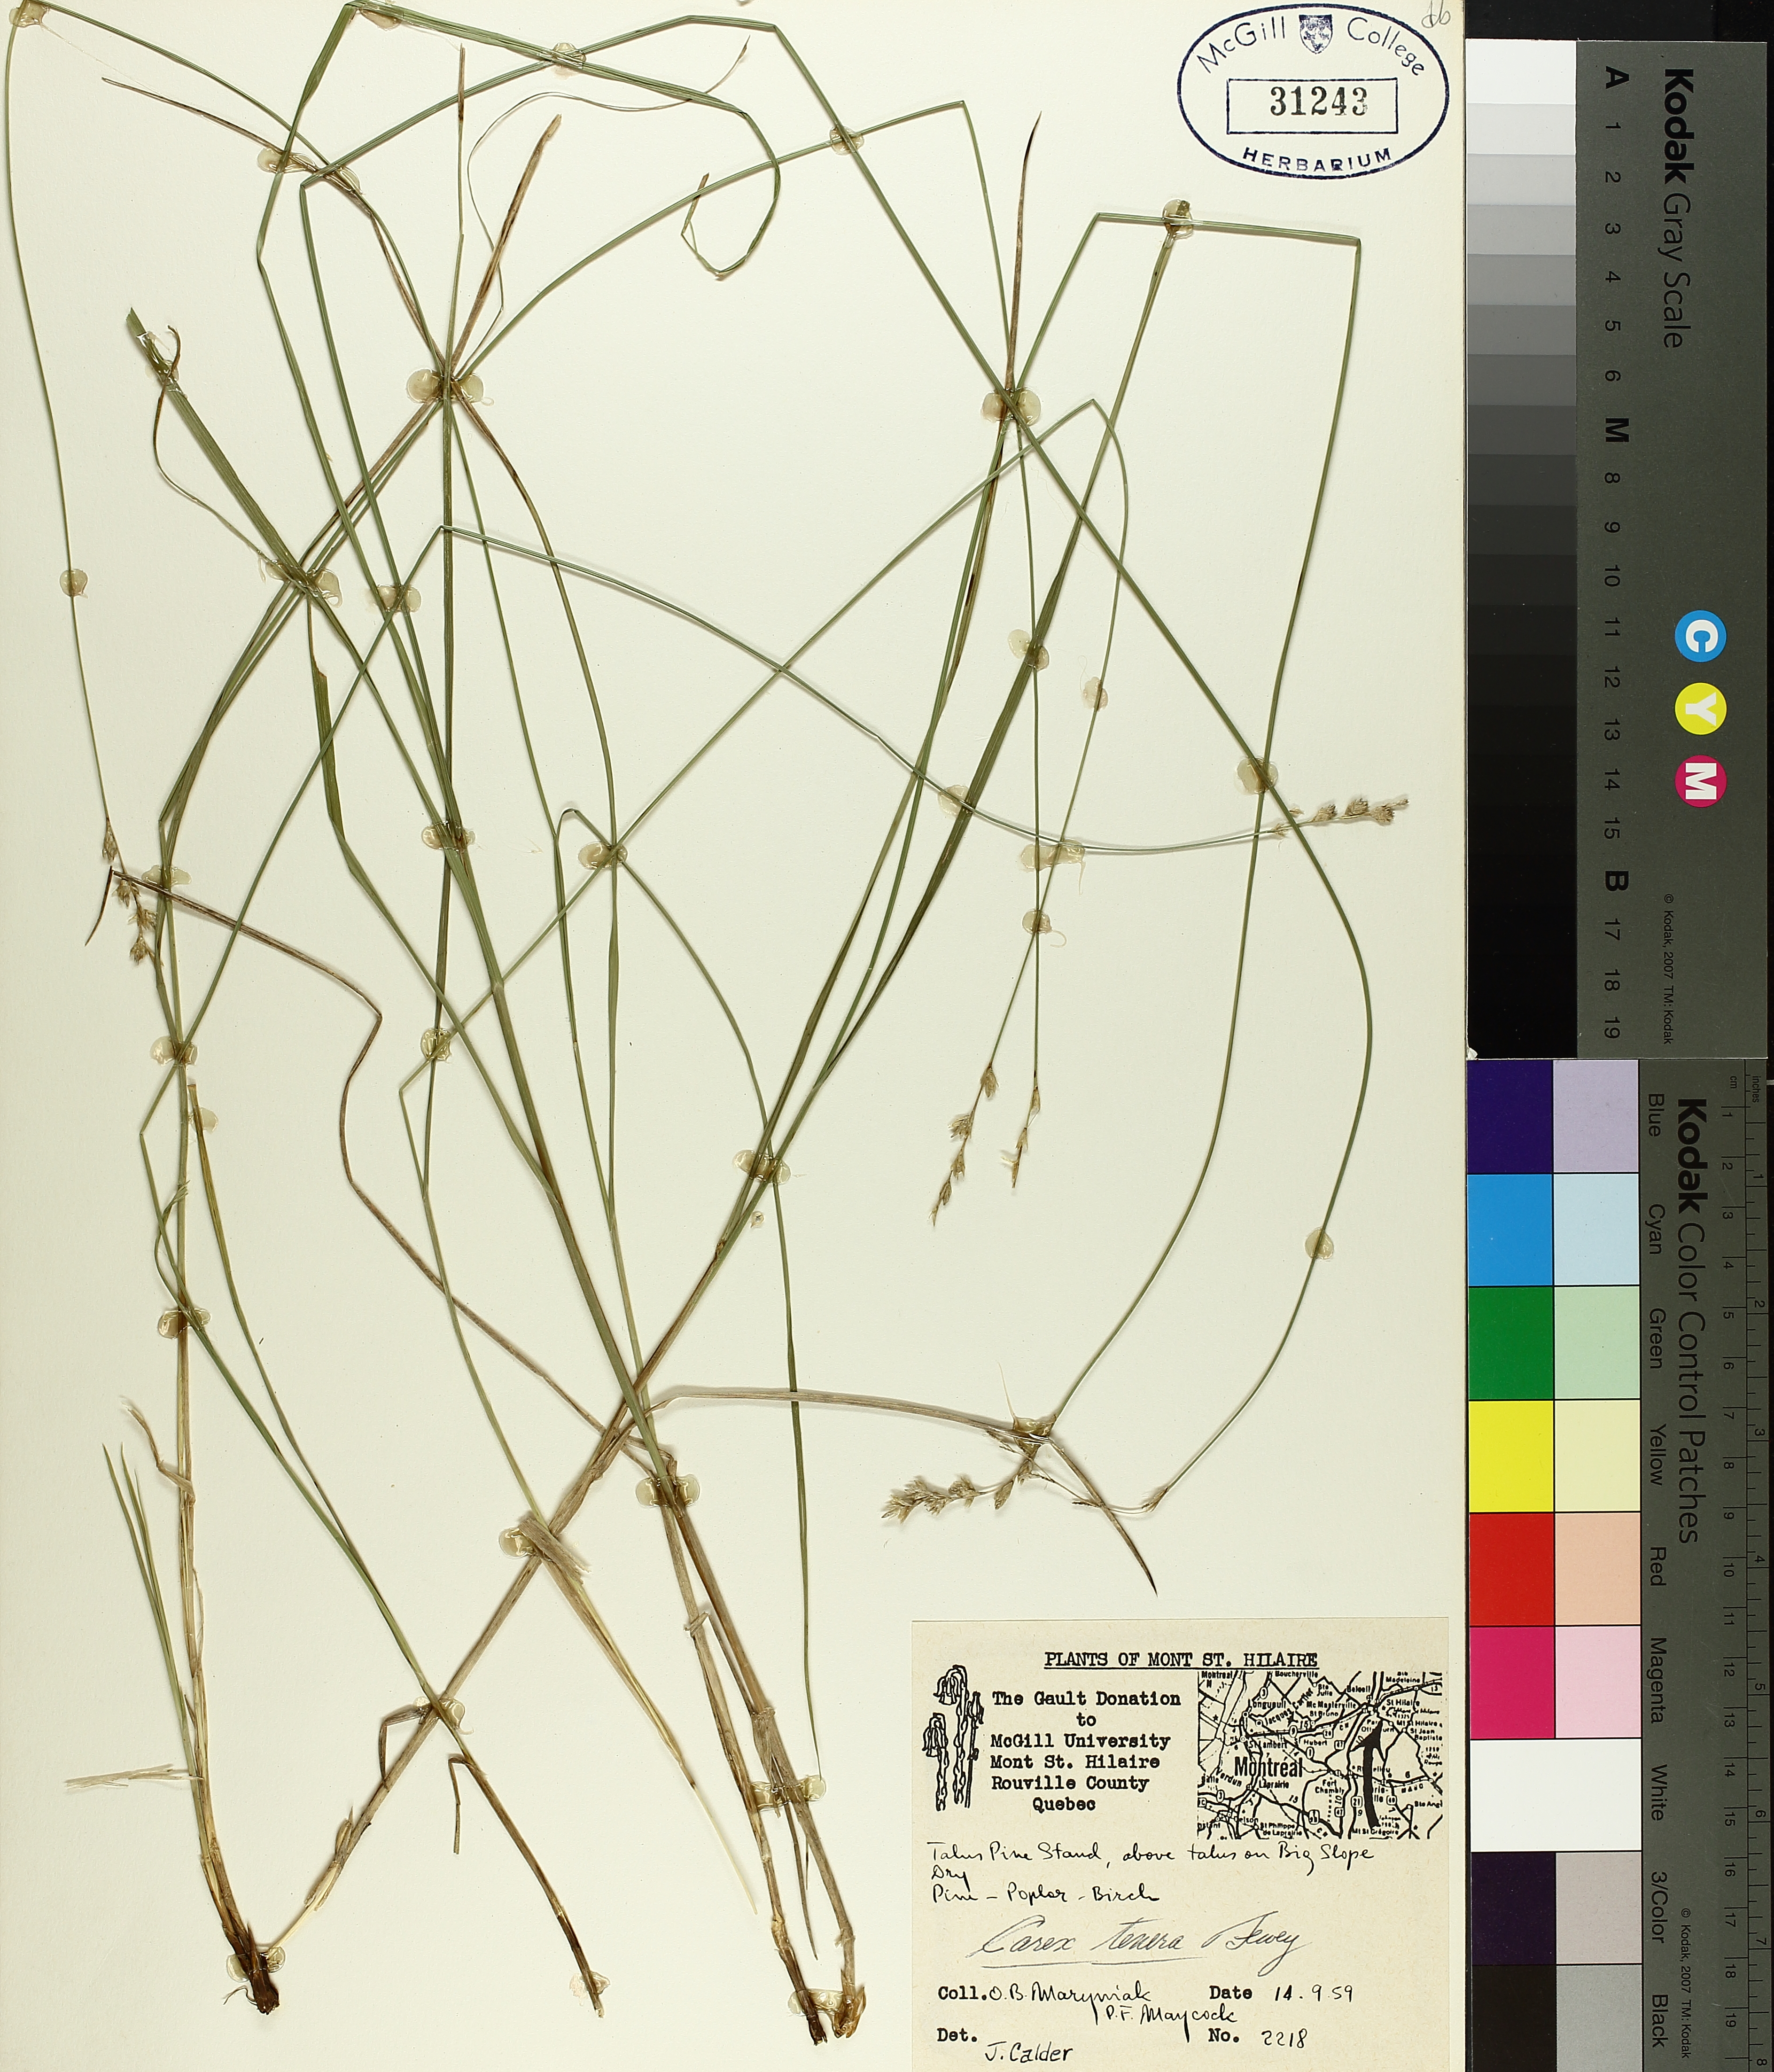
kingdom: Plantae
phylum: Tracheophyta
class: Liliopsida
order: Poales
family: Cyperaceae
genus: Carex
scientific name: Carex tenera
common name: Broad-fruited sedge
